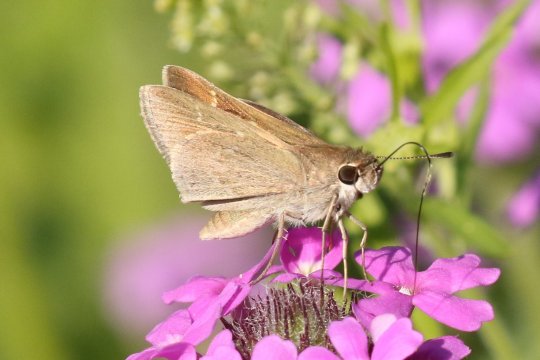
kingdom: Animalia
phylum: Arthropoda
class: Insecta
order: Lepidoptera
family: Hesperiidae
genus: Lerodea
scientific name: Lerodea eufala
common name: Eufala Skipper
